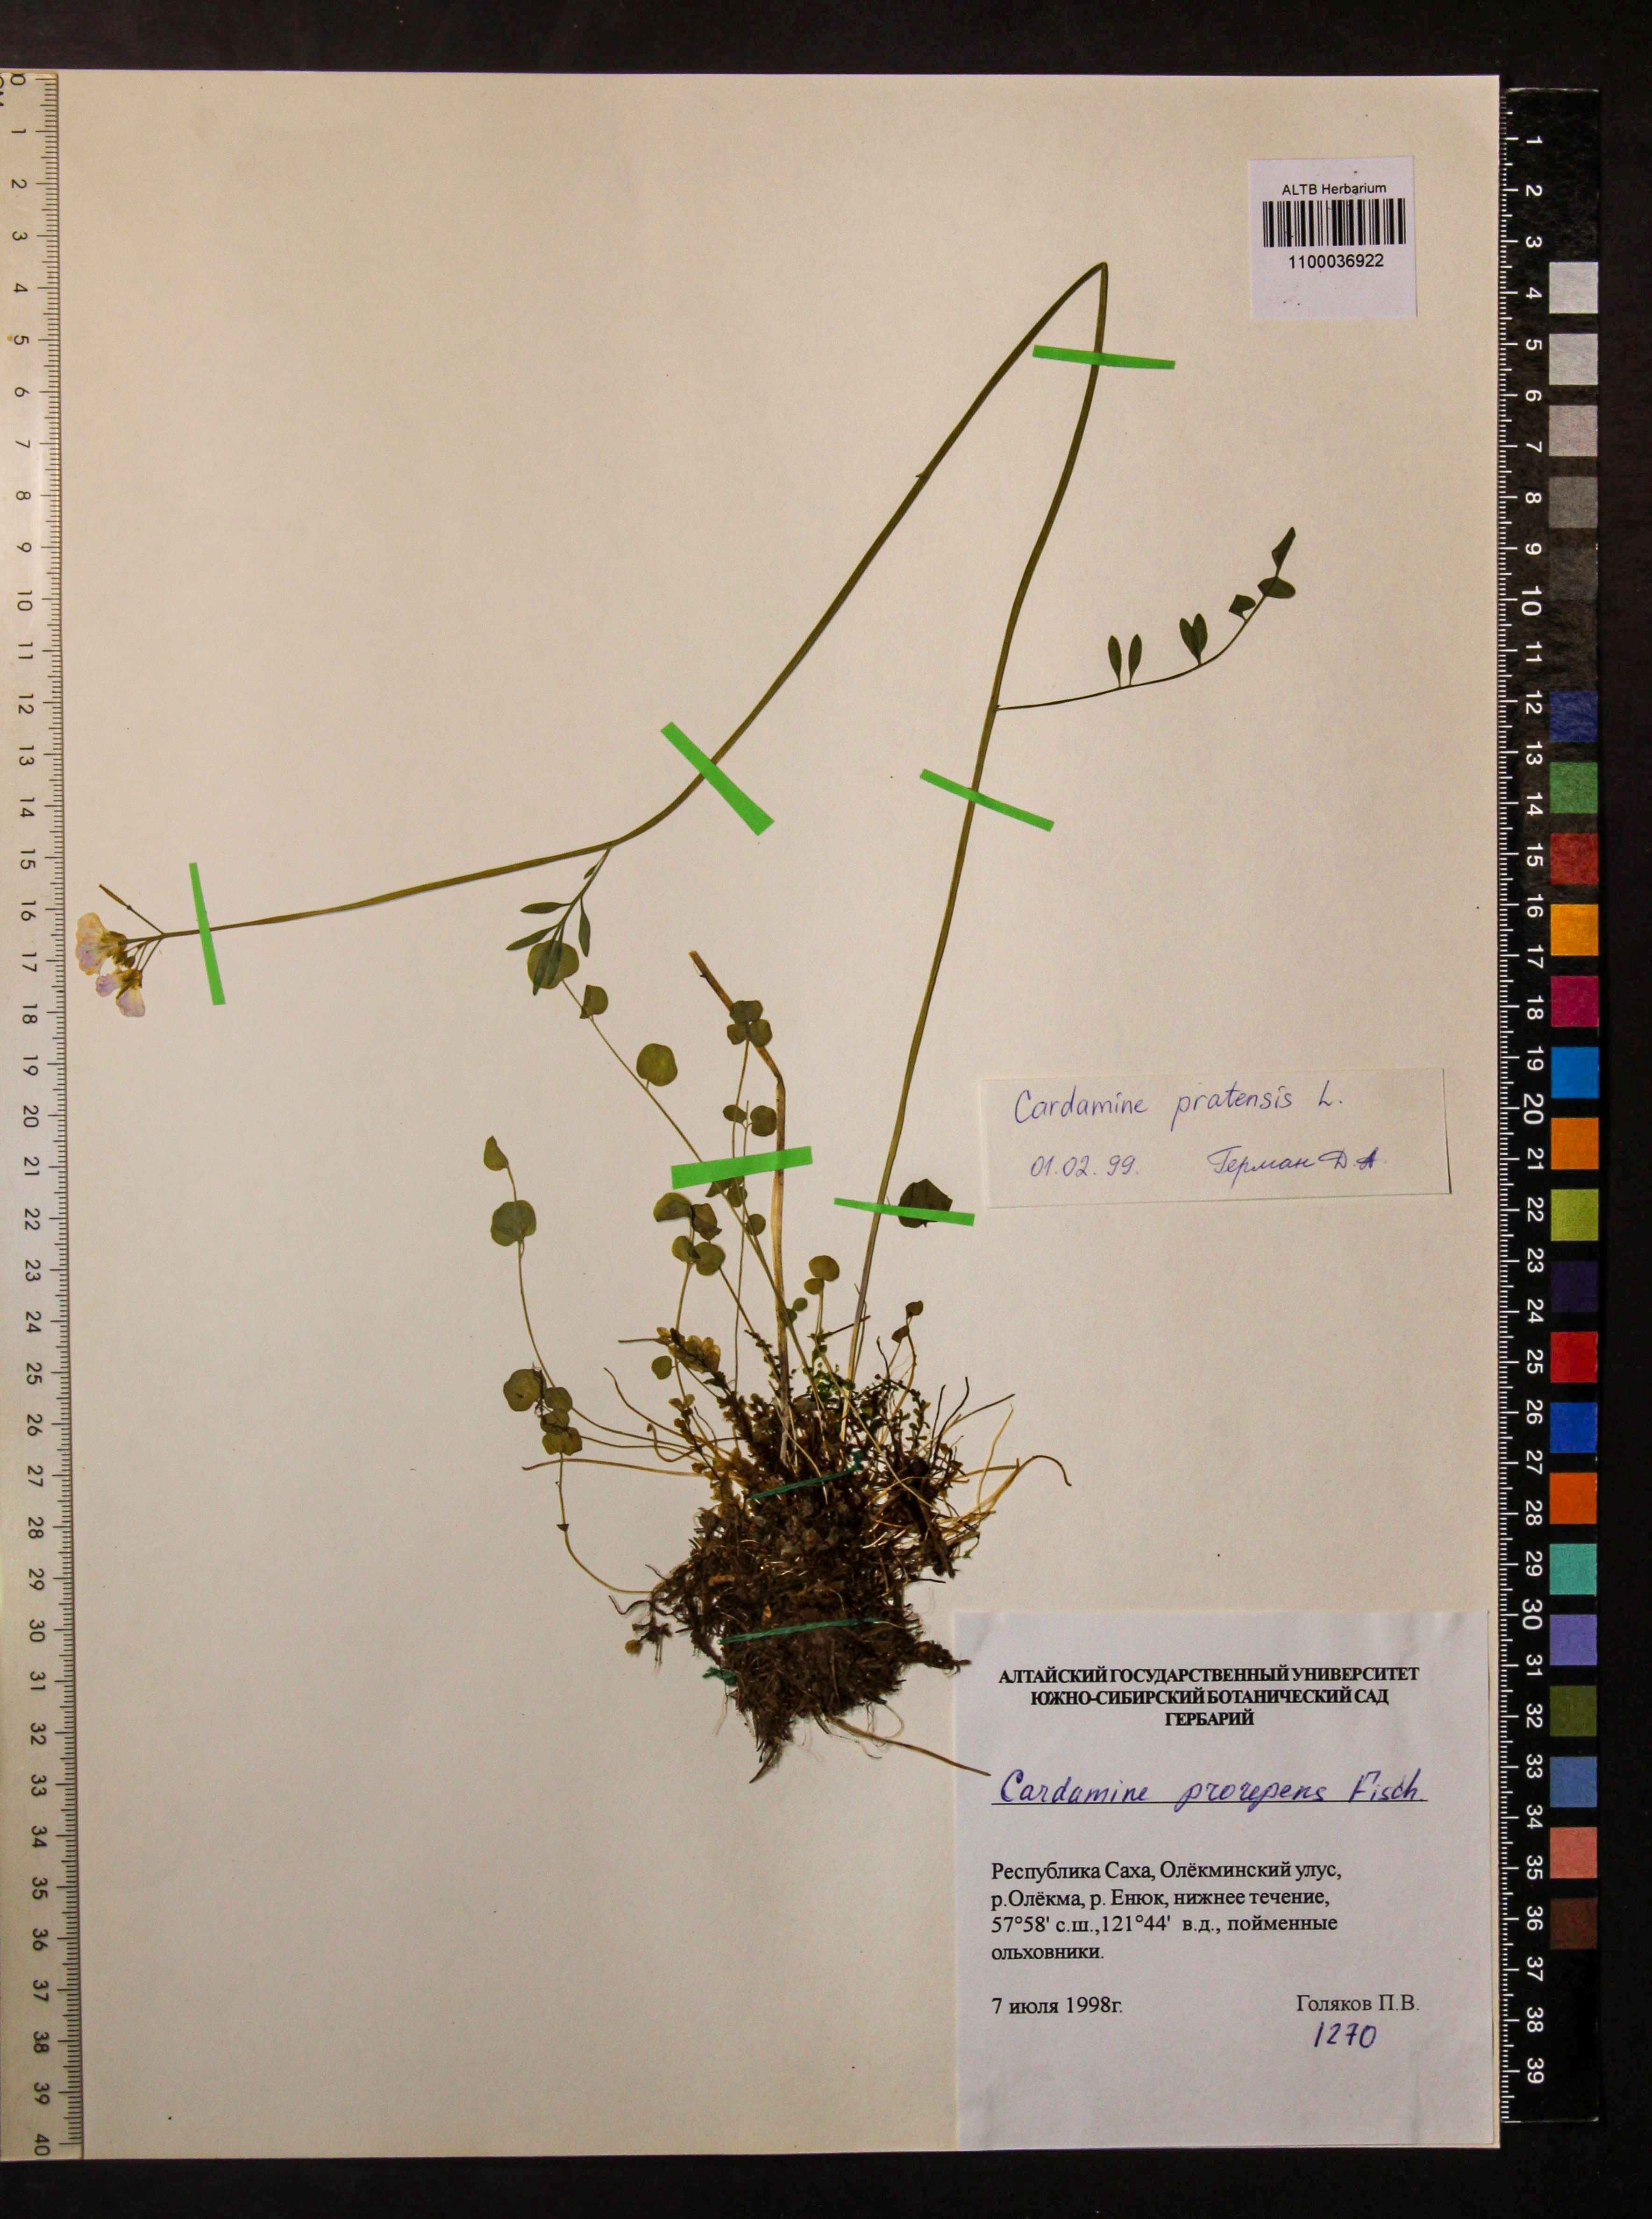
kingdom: Plantae
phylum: Tracheophyta
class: Magnoliopsida
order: Brassicales
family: Brassicaceae
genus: Cardamine
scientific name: Cardamine prorepens
